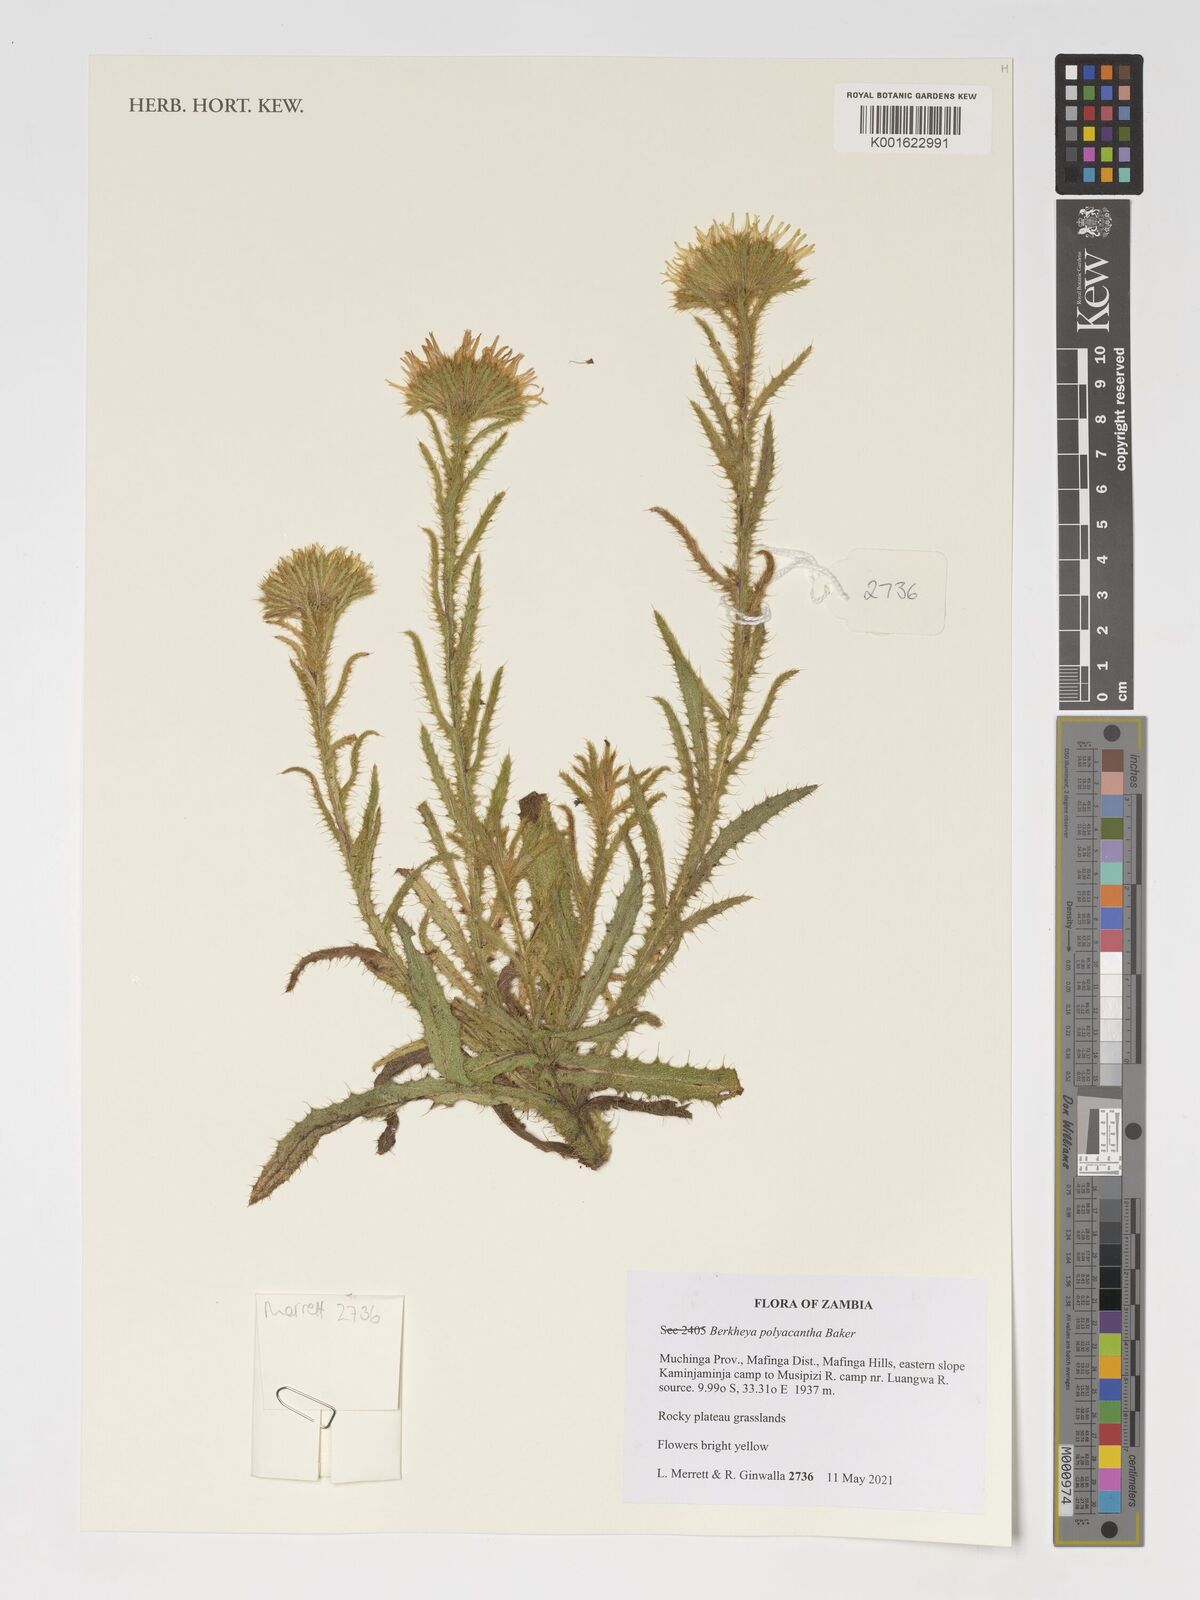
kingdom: Plantae
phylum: Tracheophyta
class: Magnoliopsida
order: Asterales
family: Asteraceae
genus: Berkheya
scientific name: Berkheya echinacea
